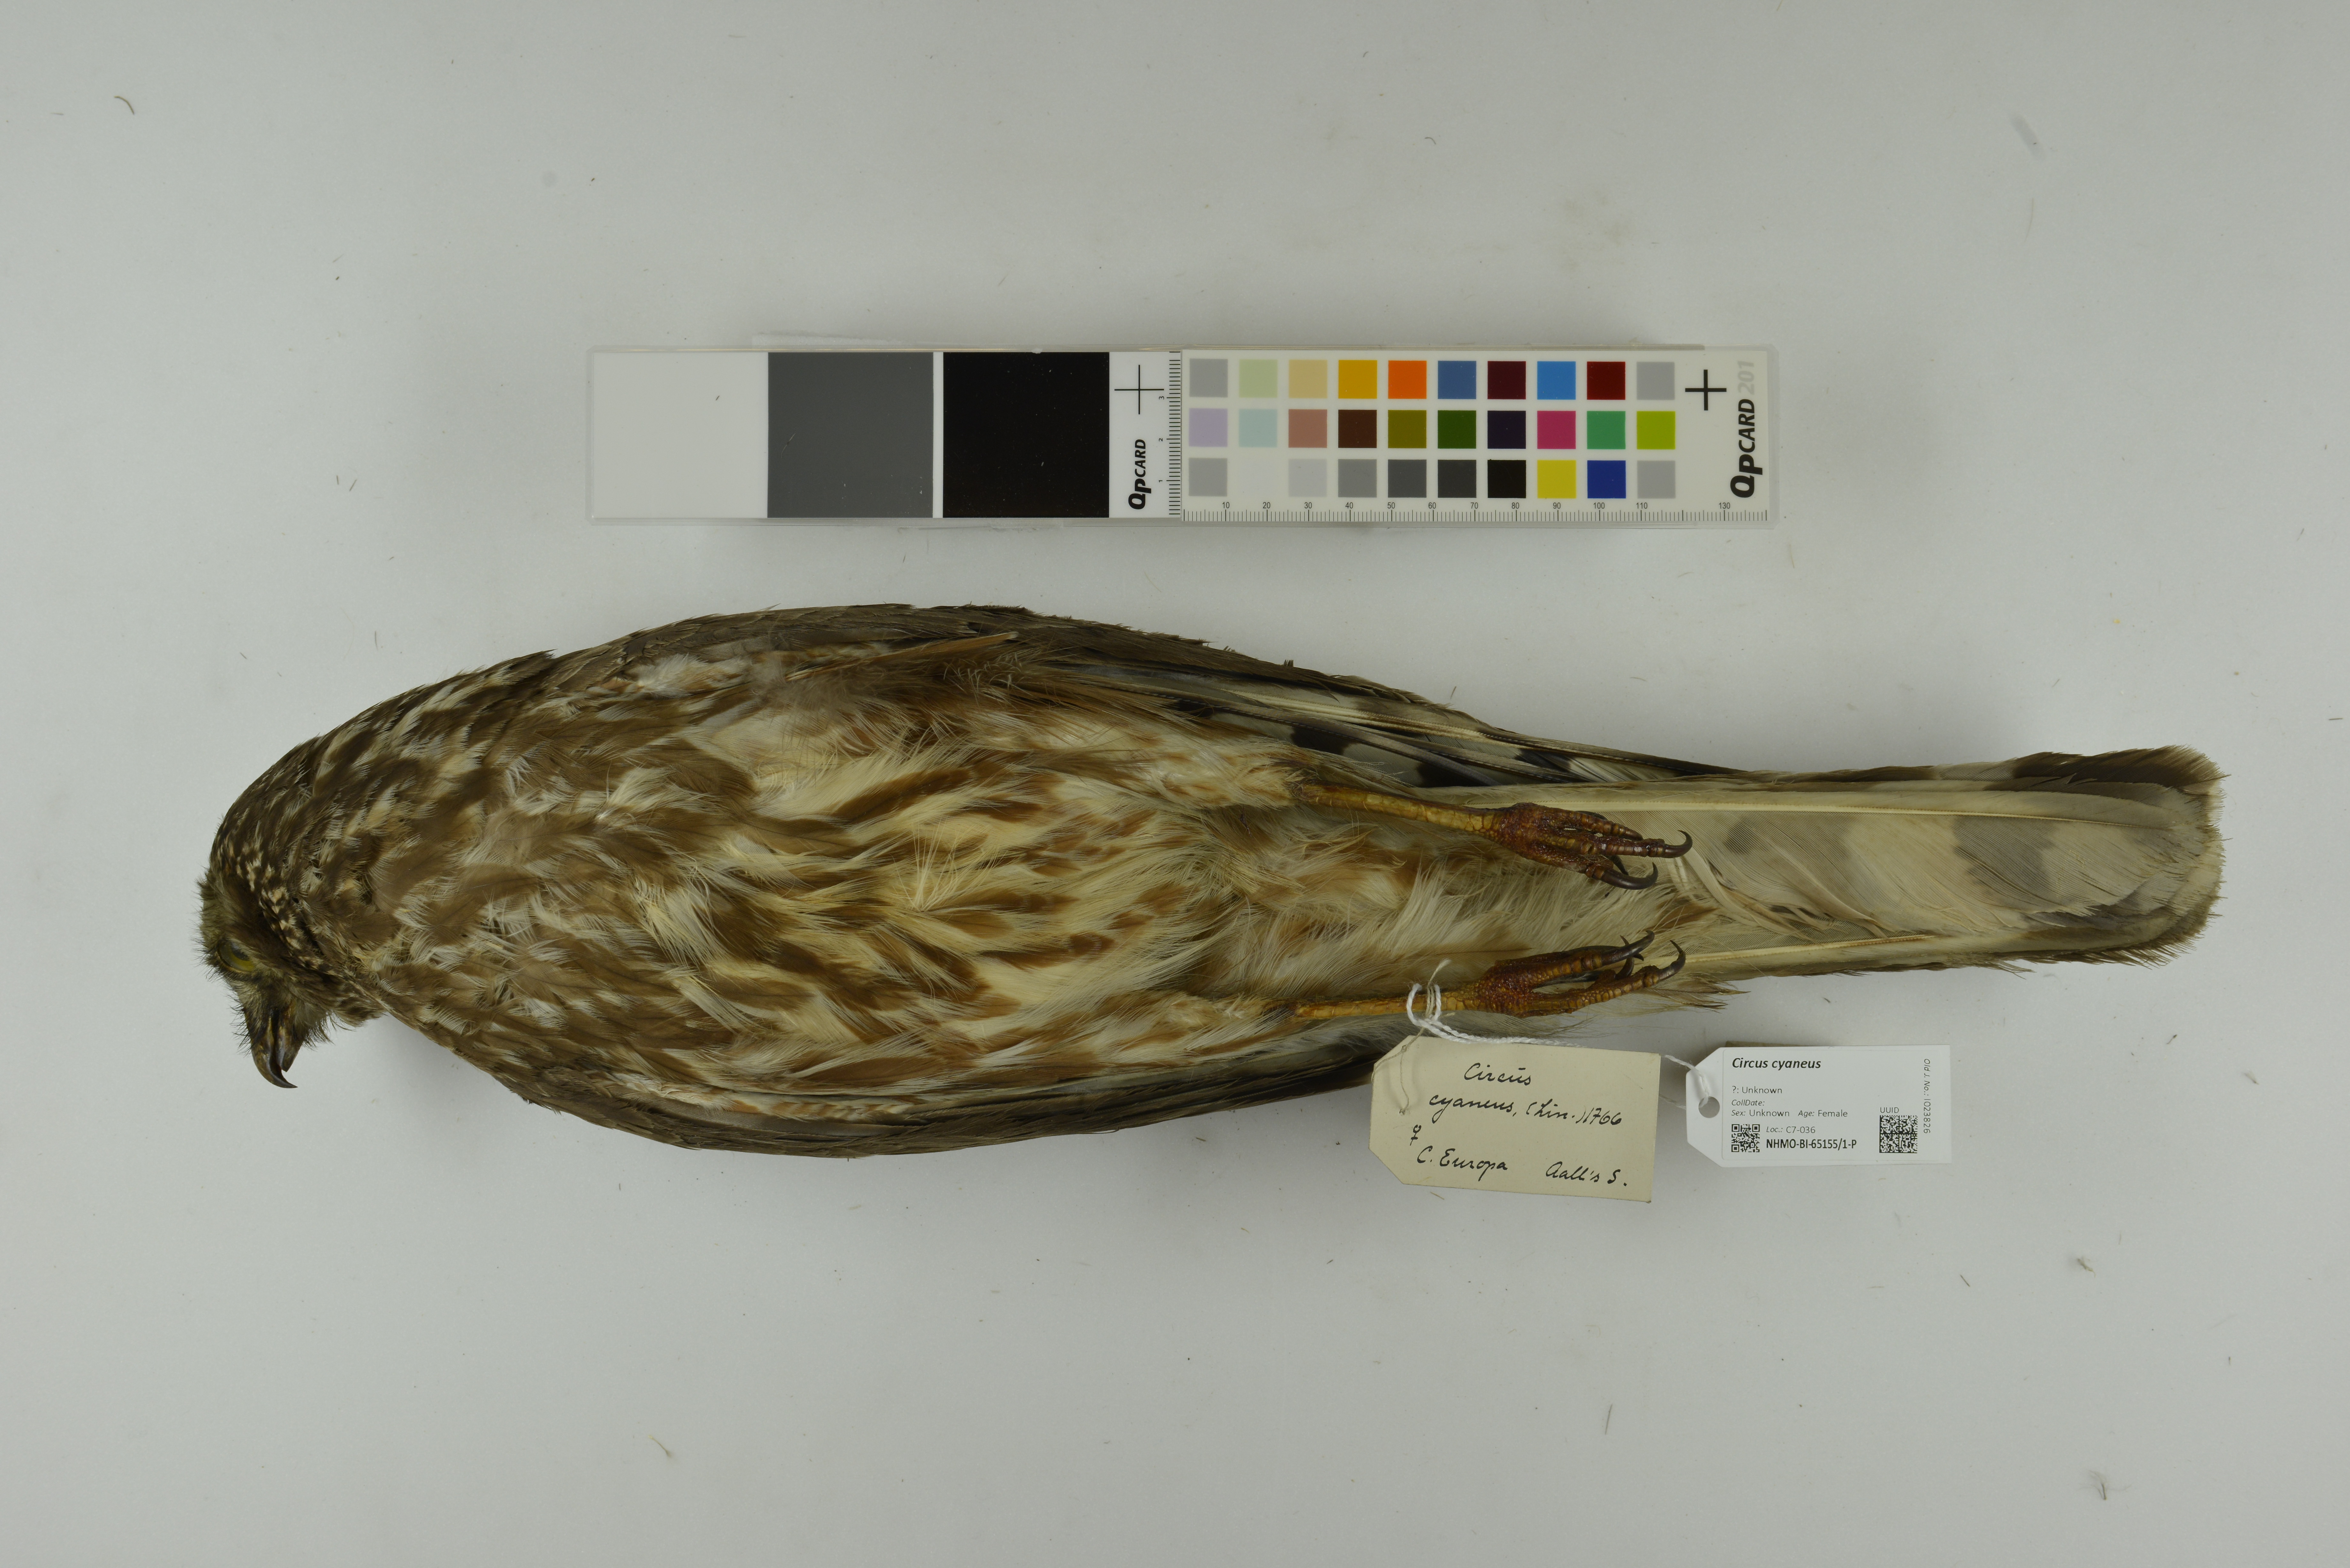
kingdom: Animalia
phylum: Chordata
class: Aves
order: Accipitriformes
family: Accipitridae
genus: Circus
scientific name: Circus cyaneus
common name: Hen harrier
